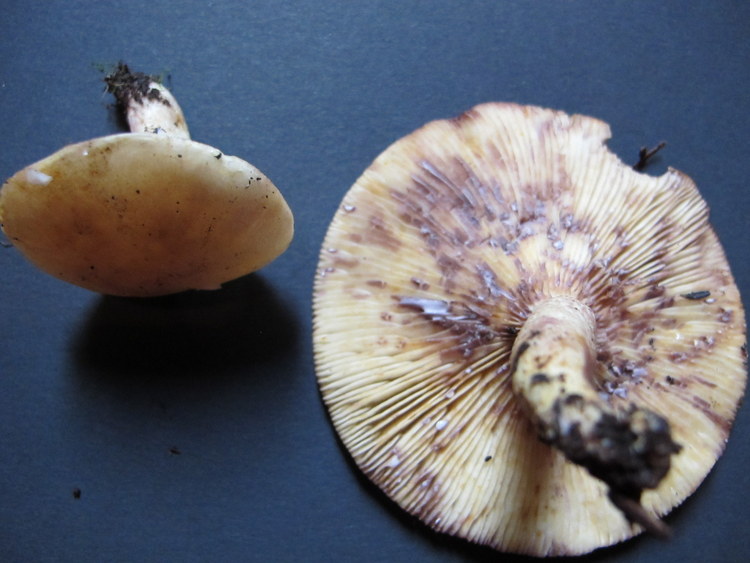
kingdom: Fungi
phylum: Basidiomycota
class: Agaricomycetes
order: Russulales
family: Russulaceae
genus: Lactarius
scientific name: Lactarius aspideus
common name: pile-mælkehat
